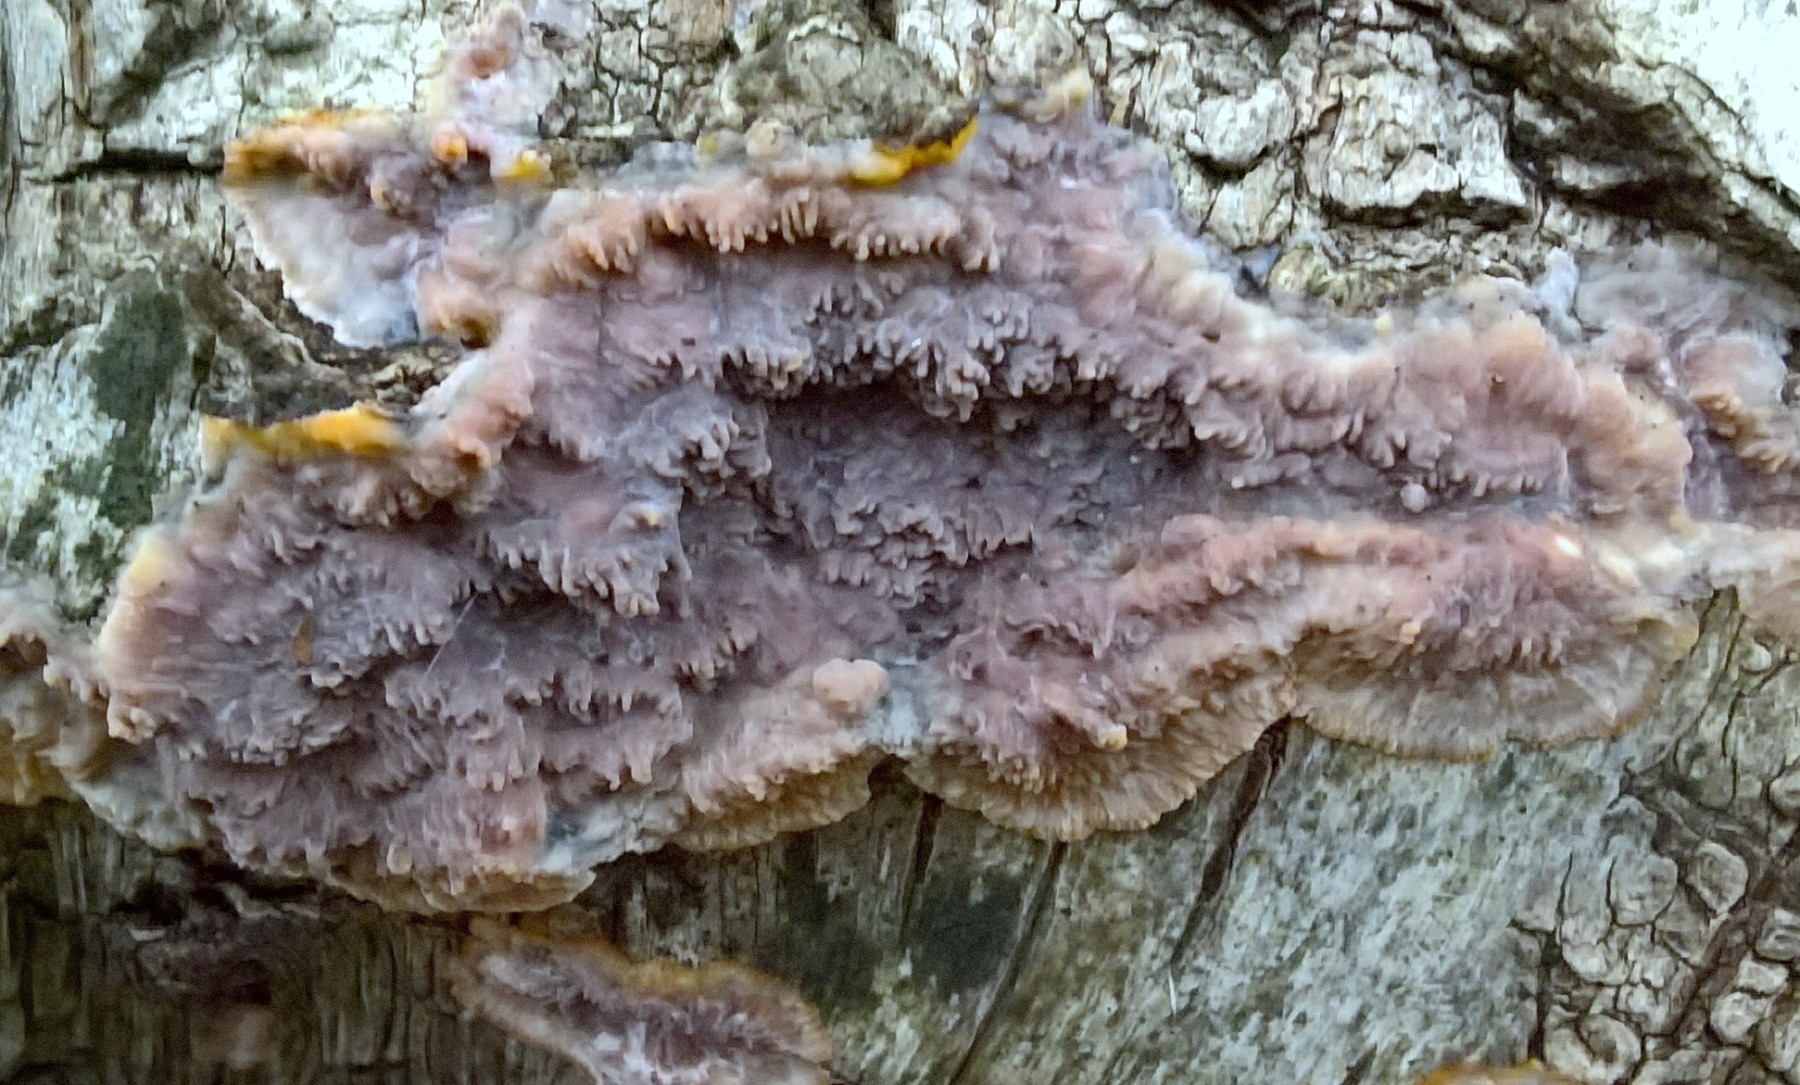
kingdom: Fungi
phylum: Basidiomycota
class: Agaricomycetes
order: Polyporales
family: Meruliaceae
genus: Phlebia
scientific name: Phlebia radiata
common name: stråle-åresvamp
